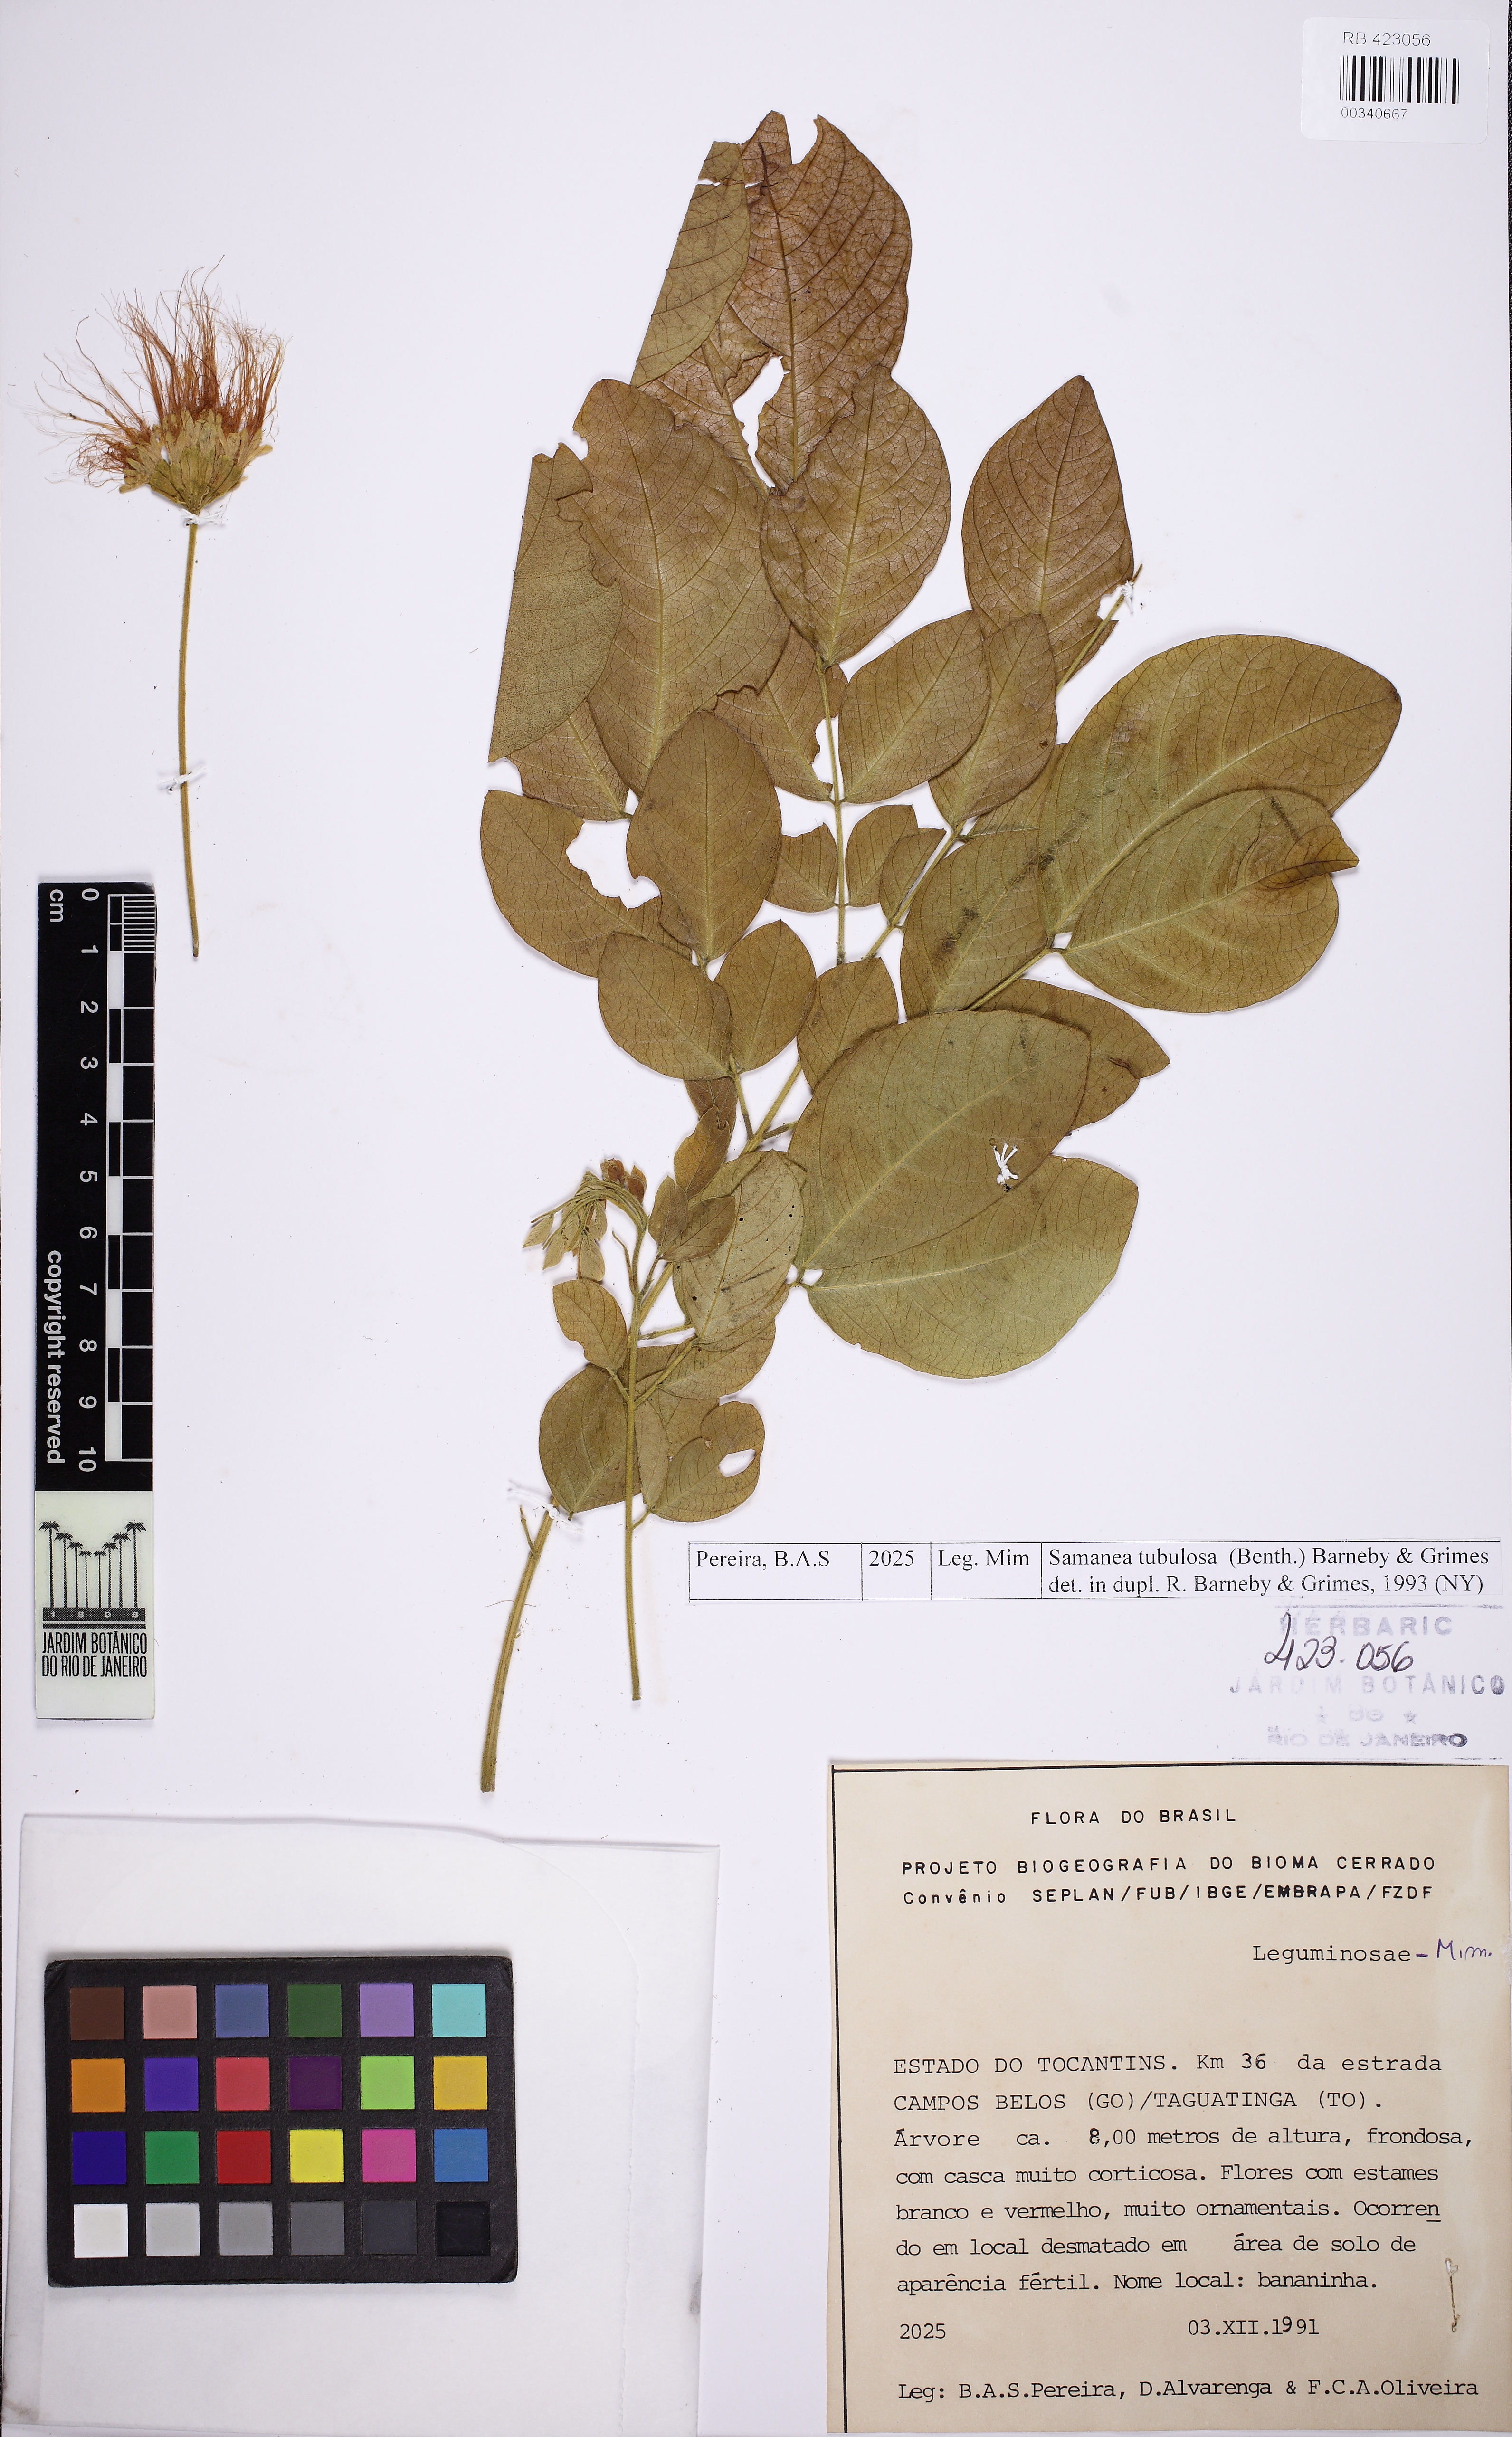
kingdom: Plantae
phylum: Tracheophyta
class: Magnoliopsida
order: Fabales
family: Fabaceae
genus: Samanea
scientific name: Samanea tubulosa
